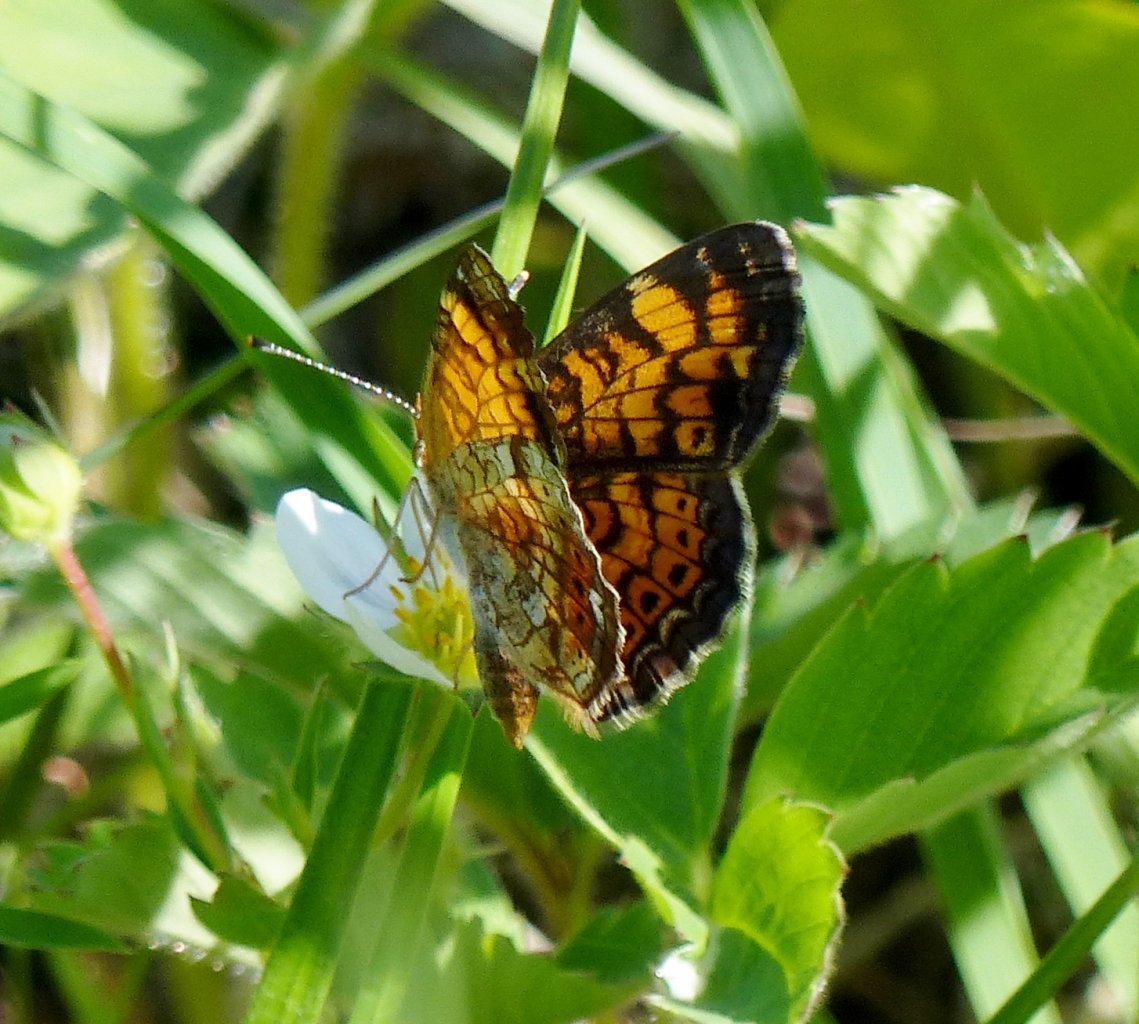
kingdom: Animalia
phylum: Arthropoda
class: Insecta
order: Lepidoptera
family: Nymphalidae
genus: Phyciodes
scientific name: Phyciodes tharos
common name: Pearl Crescent
